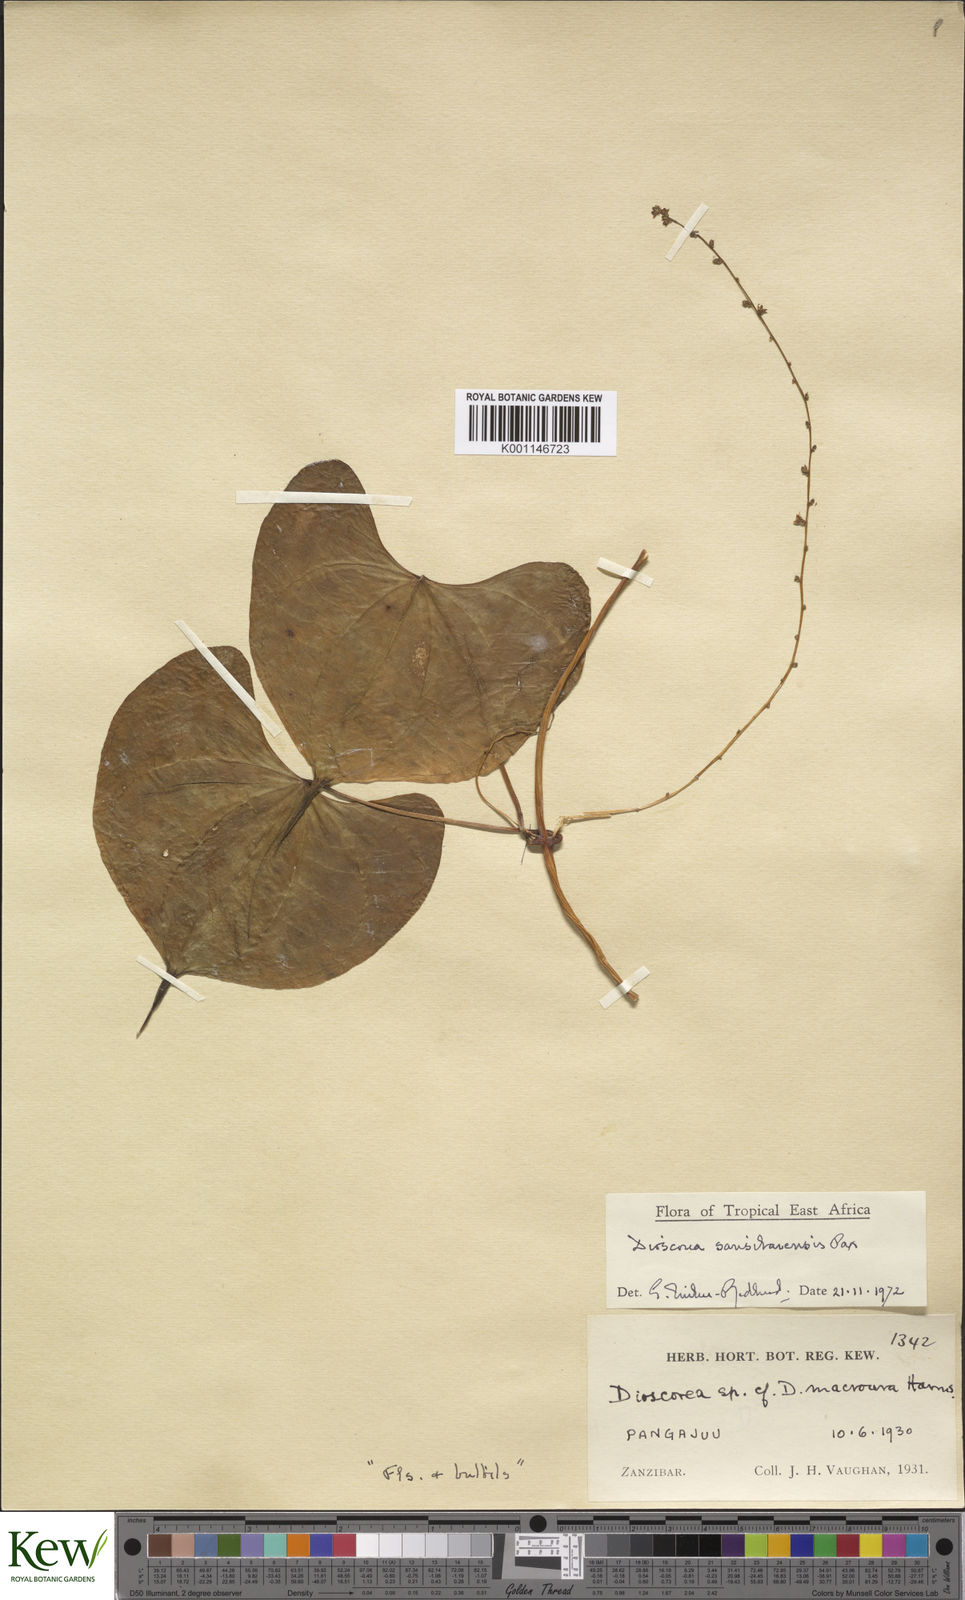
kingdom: Plantae
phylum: Tracheophyta
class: Liliopsida
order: Dioscoreales
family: Dioscoreaceae
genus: Dioscorea
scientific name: Dioscorea sansibarensis
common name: Zanzibar yam
